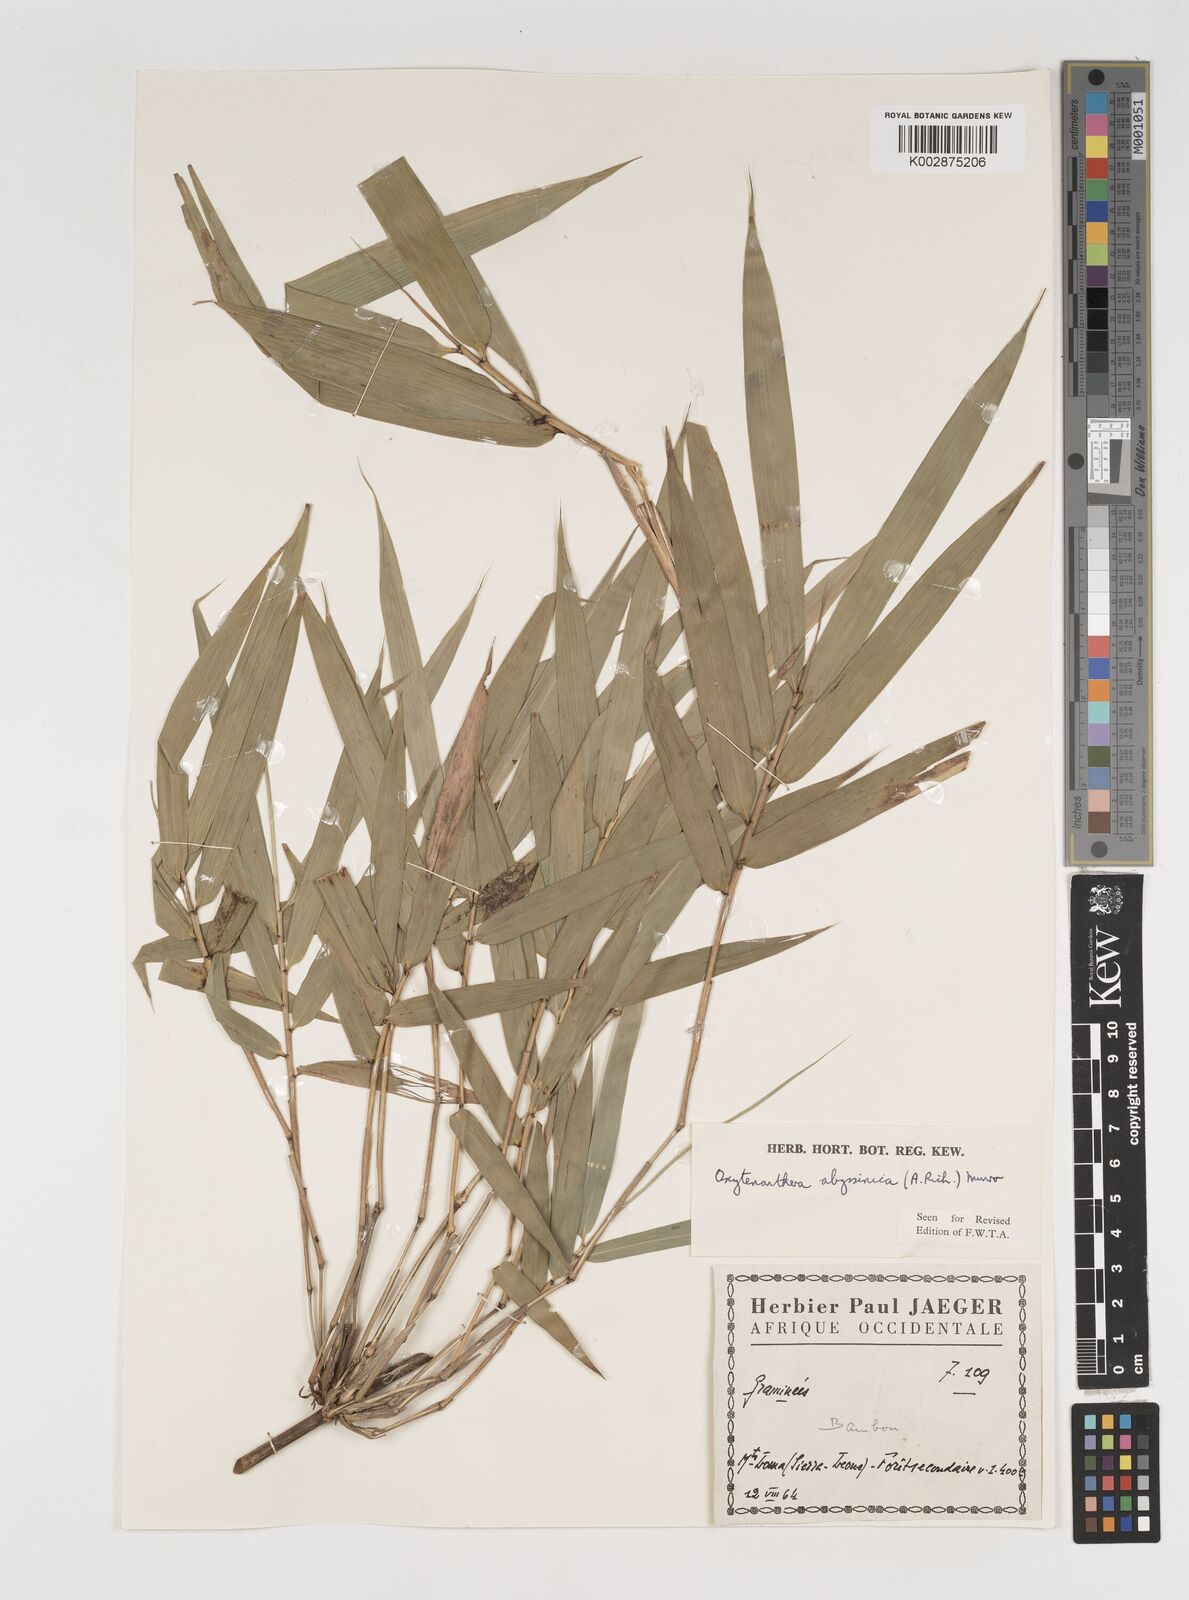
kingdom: Plantae
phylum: Tracheophyta
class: Liliopsida
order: Poales
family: Poaceae
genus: Oxytenanthera
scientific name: Oxytenanthera abyssinica
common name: Wine bamboo
